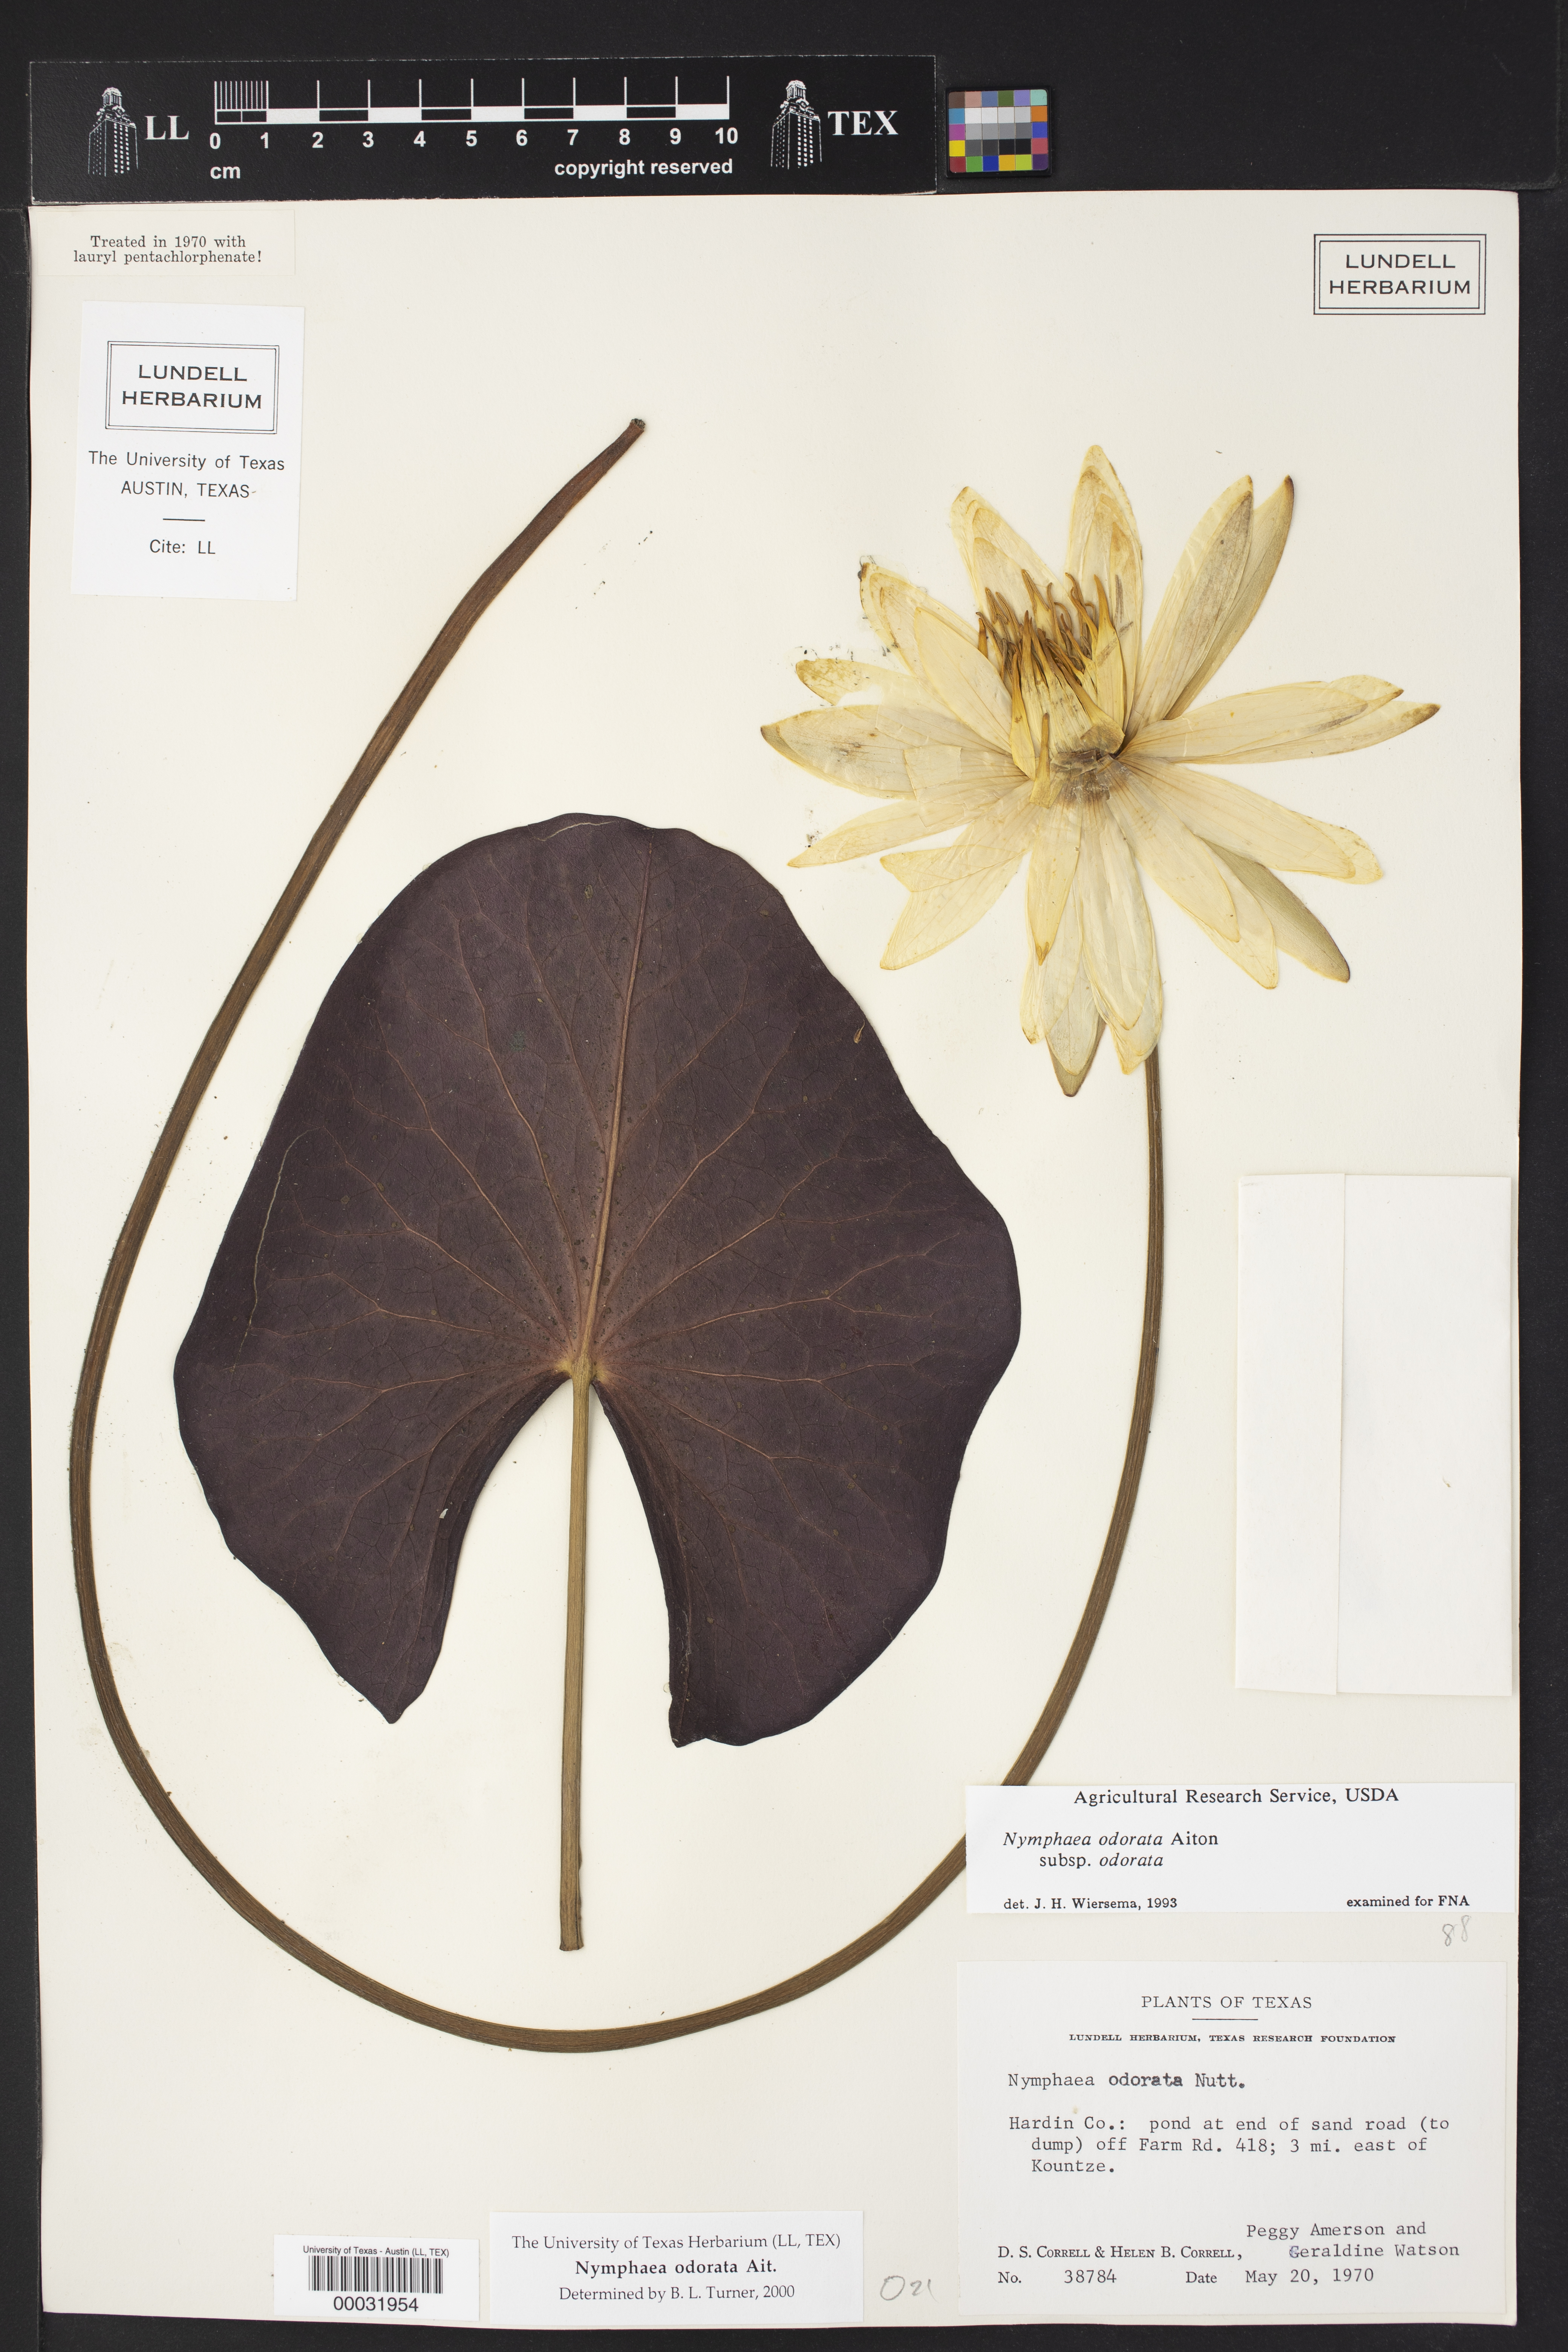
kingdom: Plantae
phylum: Tracheophyta
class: Magnoliopsida
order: Nymphaeales
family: Nymphaeaceae
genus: Nymphaea
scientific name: Nymphaea odorata
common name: Fragrant water-lily
